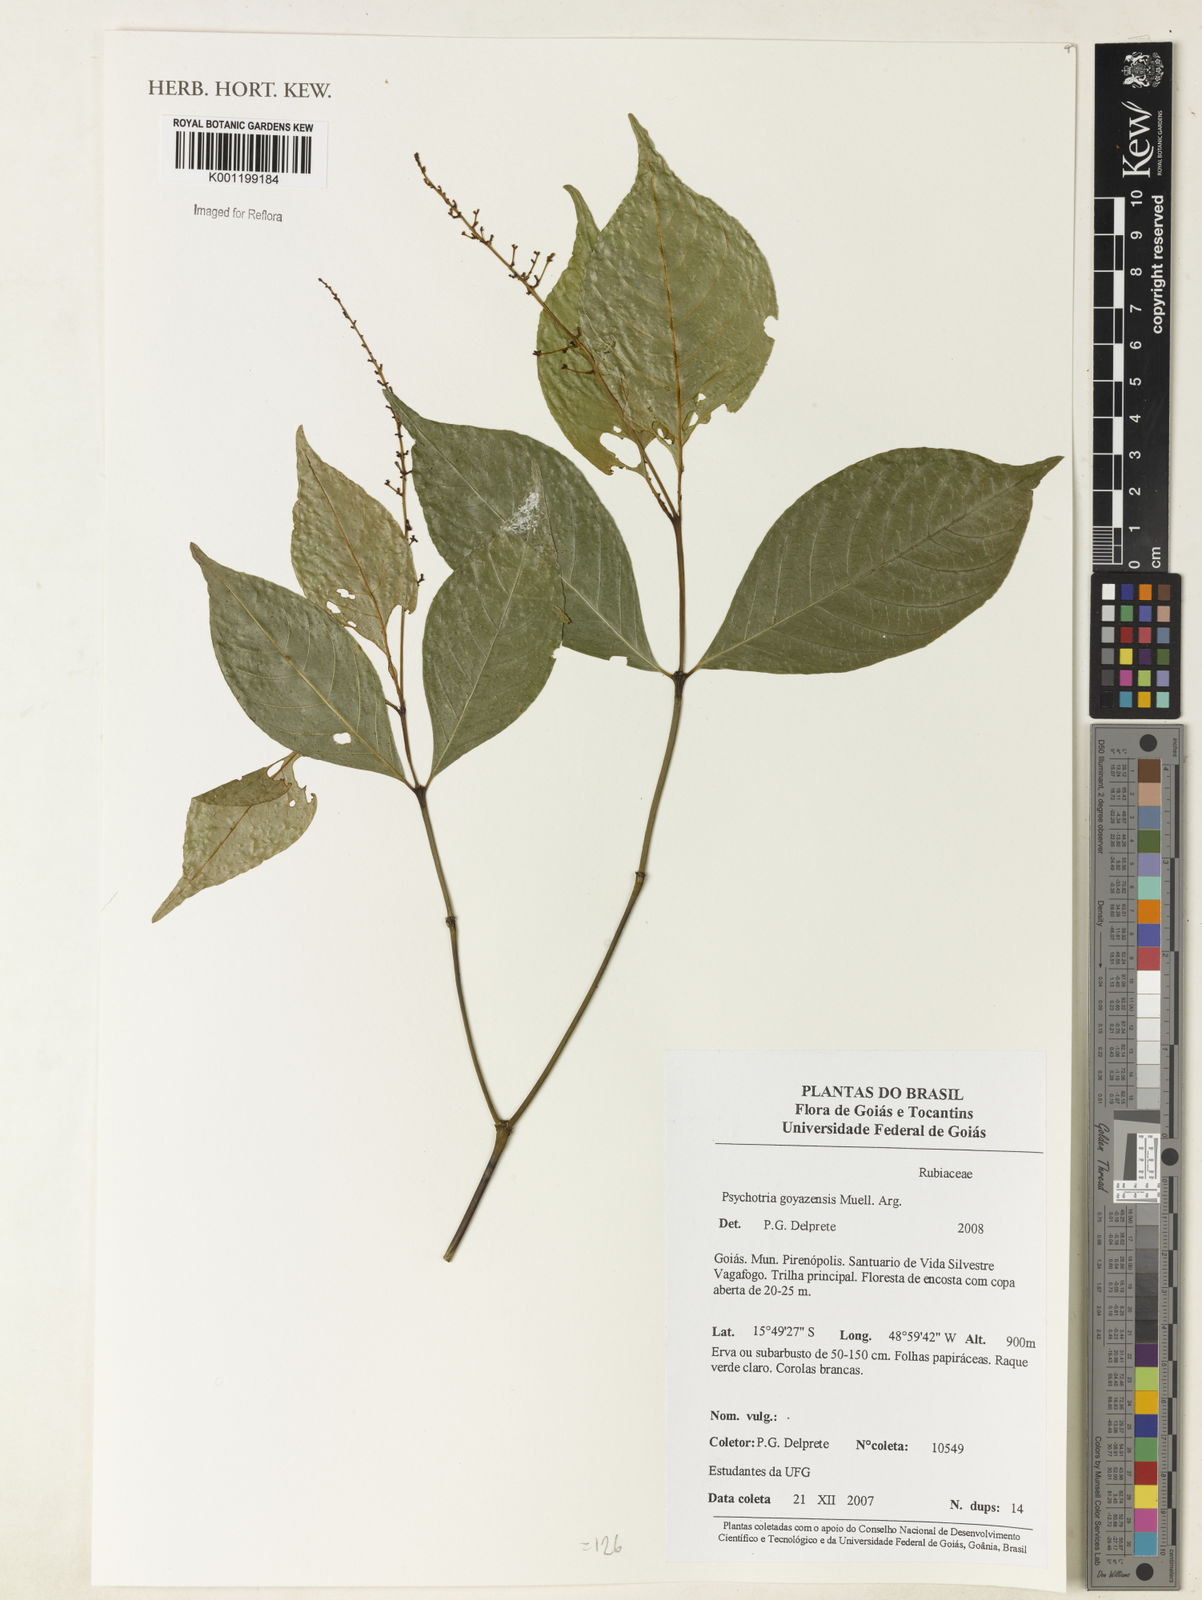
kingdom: Plantae
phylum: Tracheophyta
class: Magnoliopsida
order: Gentianales
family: Rubiaceae
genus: Palicourea
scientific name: Palicourea deflexa
